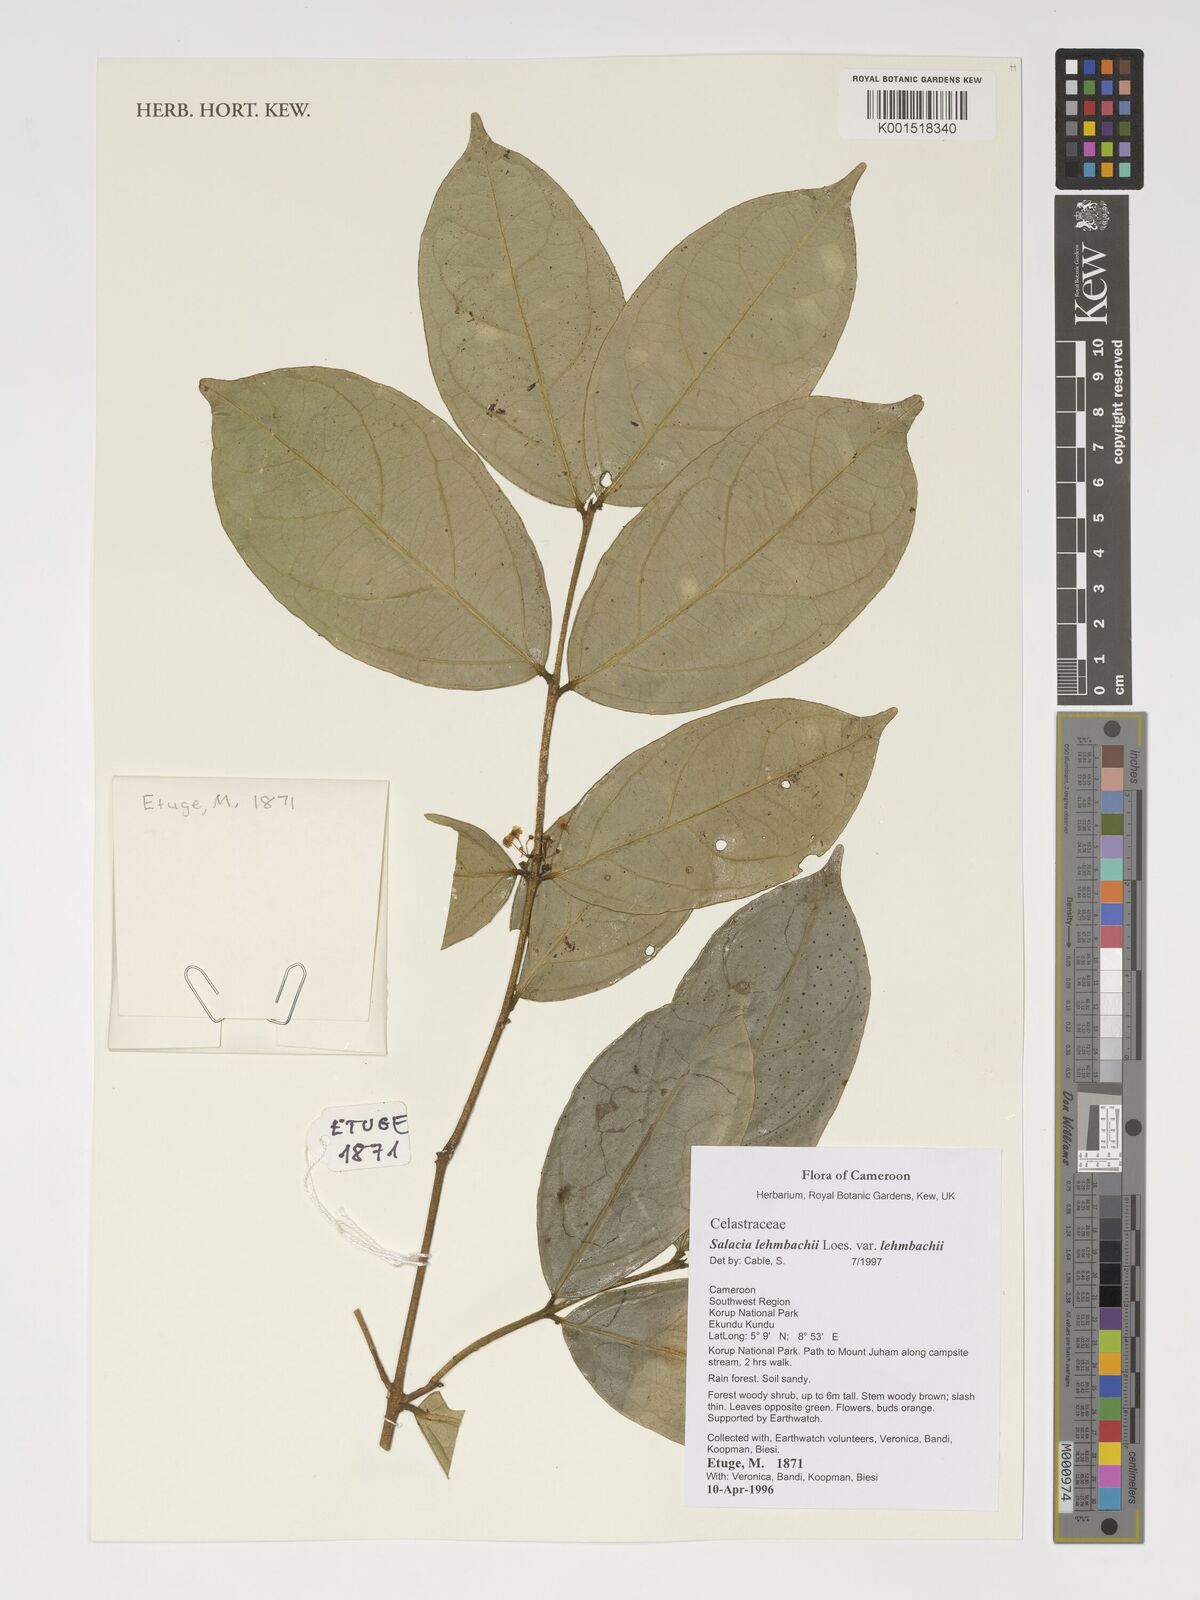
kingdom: Plantae
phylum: Tracheophyta
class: Magnoliopsida
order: Celastrales
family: Celastraceae
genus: Salacia
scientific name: Salacia lehmbachii
